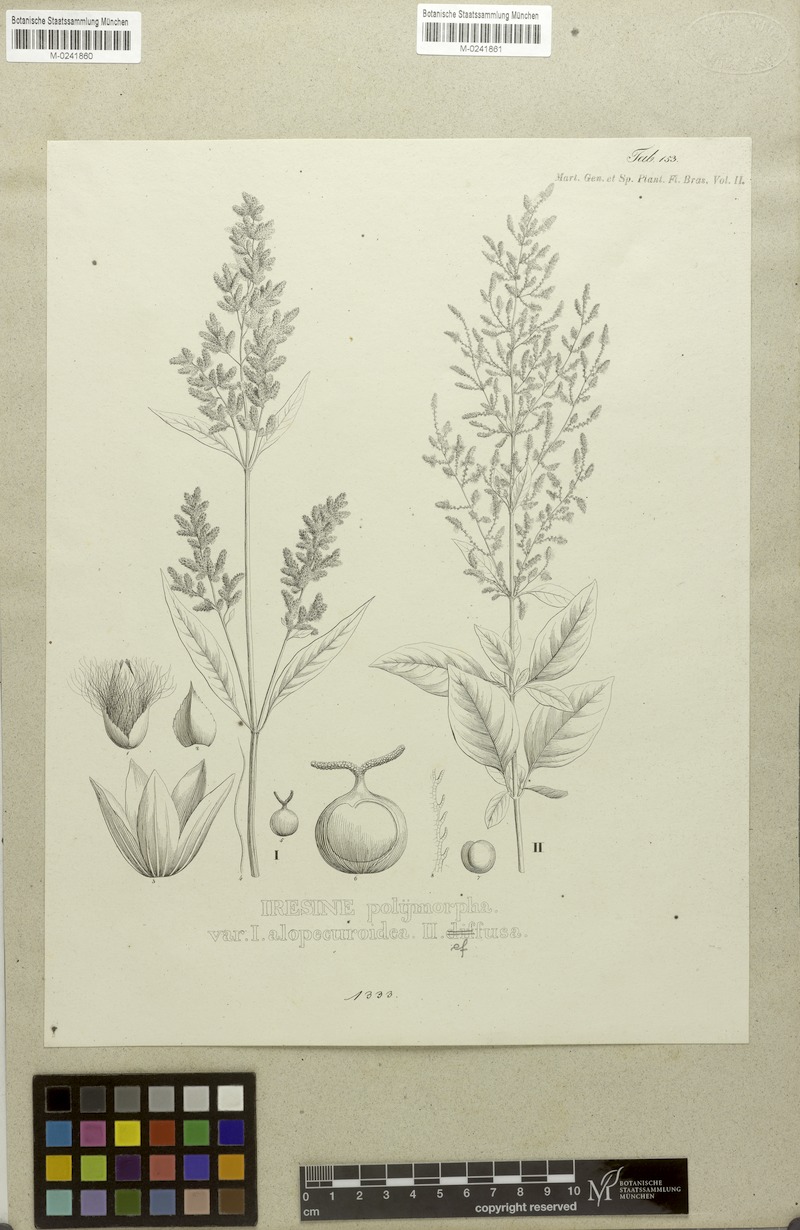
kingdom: Plantae
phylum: Tracheophyta
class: Magnoliopsida
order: Caryophyllales
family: Amaranthaceae
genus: Iresine
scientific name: Iresine diffusa
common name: Juba's-bush
